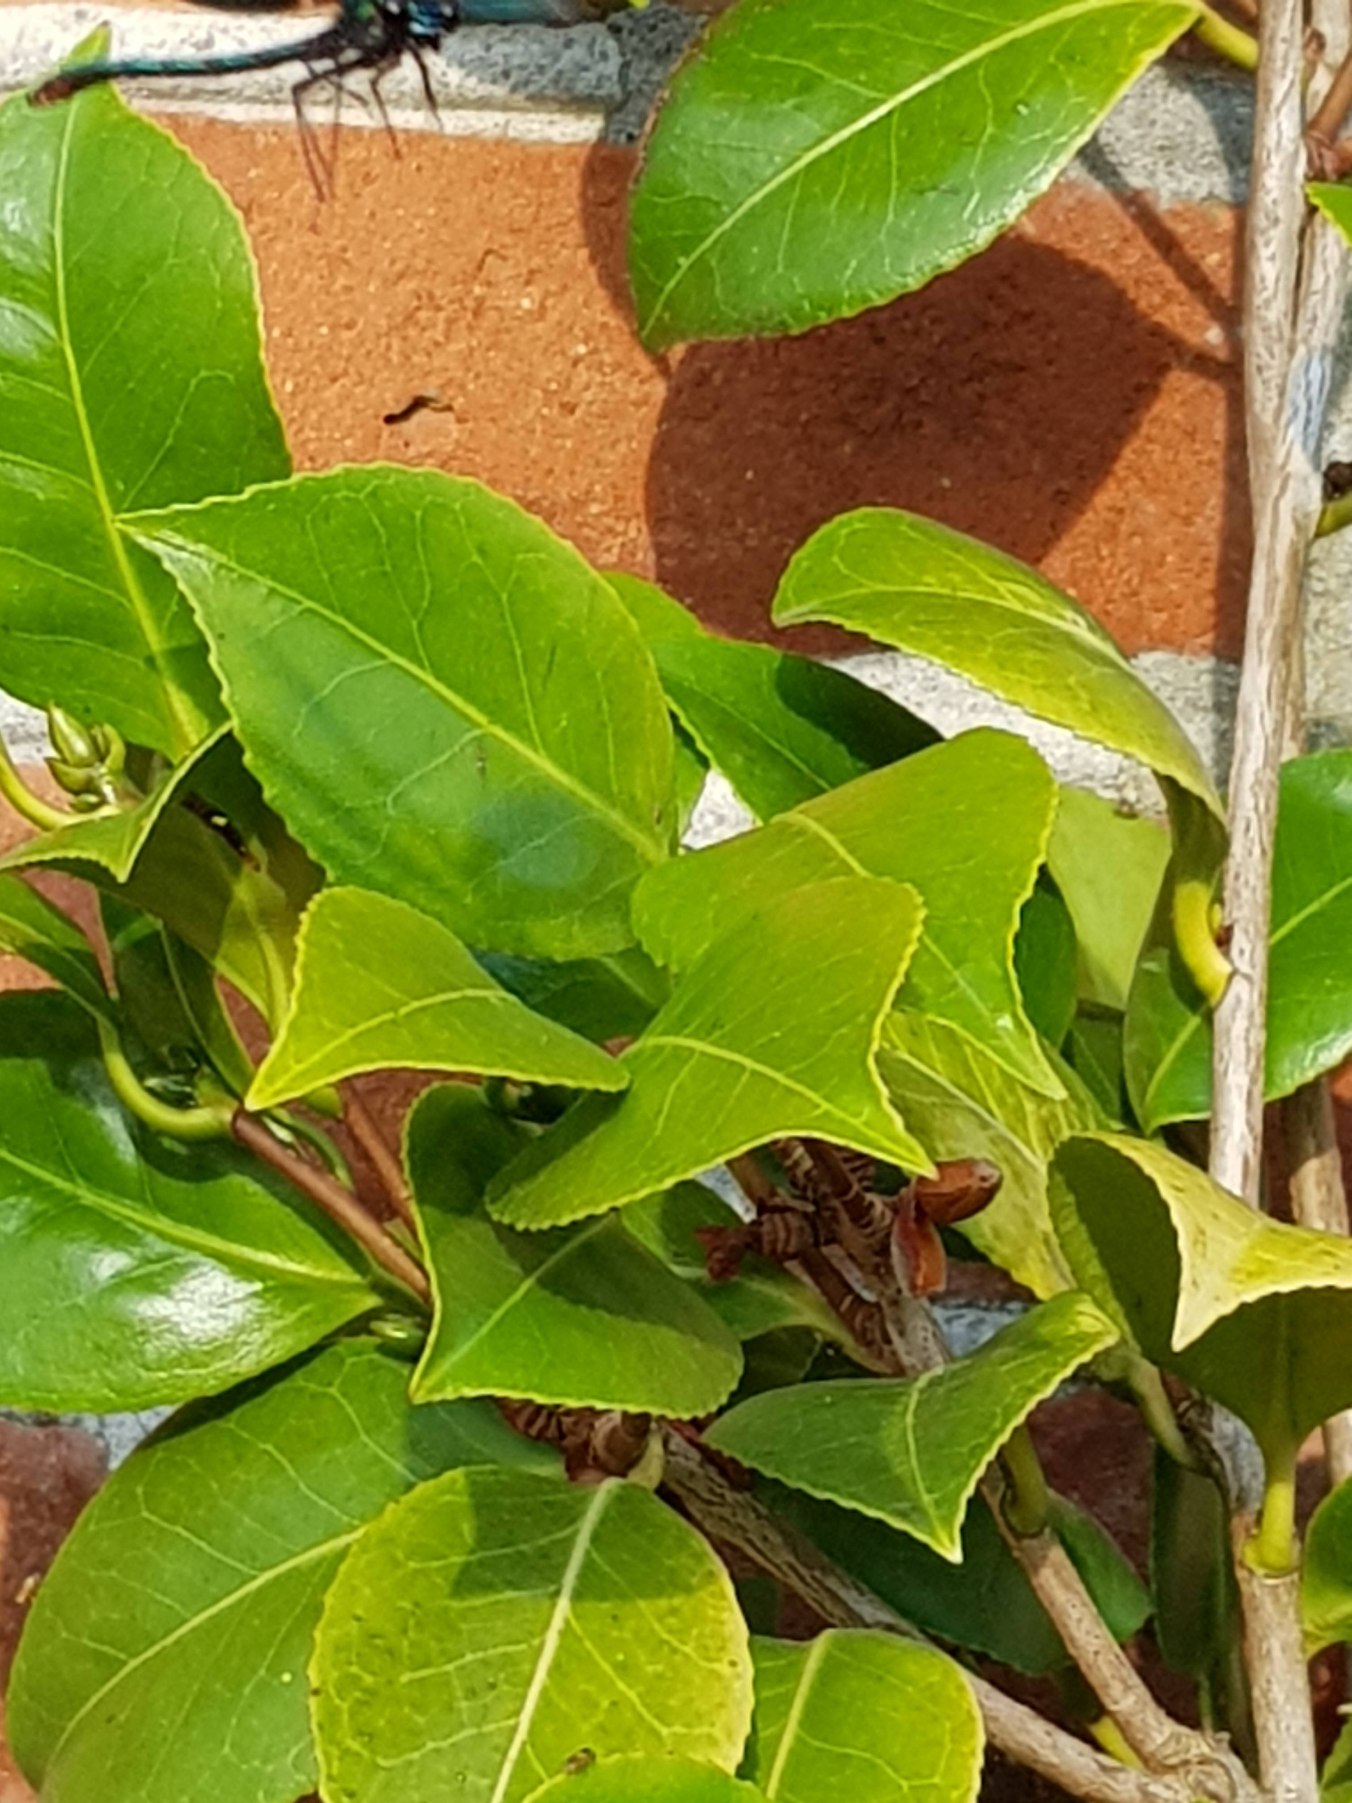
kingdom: Animalia
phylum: Arthropoda
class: Insecta
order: Odonata
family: Calopterygidae
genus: Calopteryx
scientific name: Calopteryx virgo
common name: Blåvinget pragtvandnymfe
